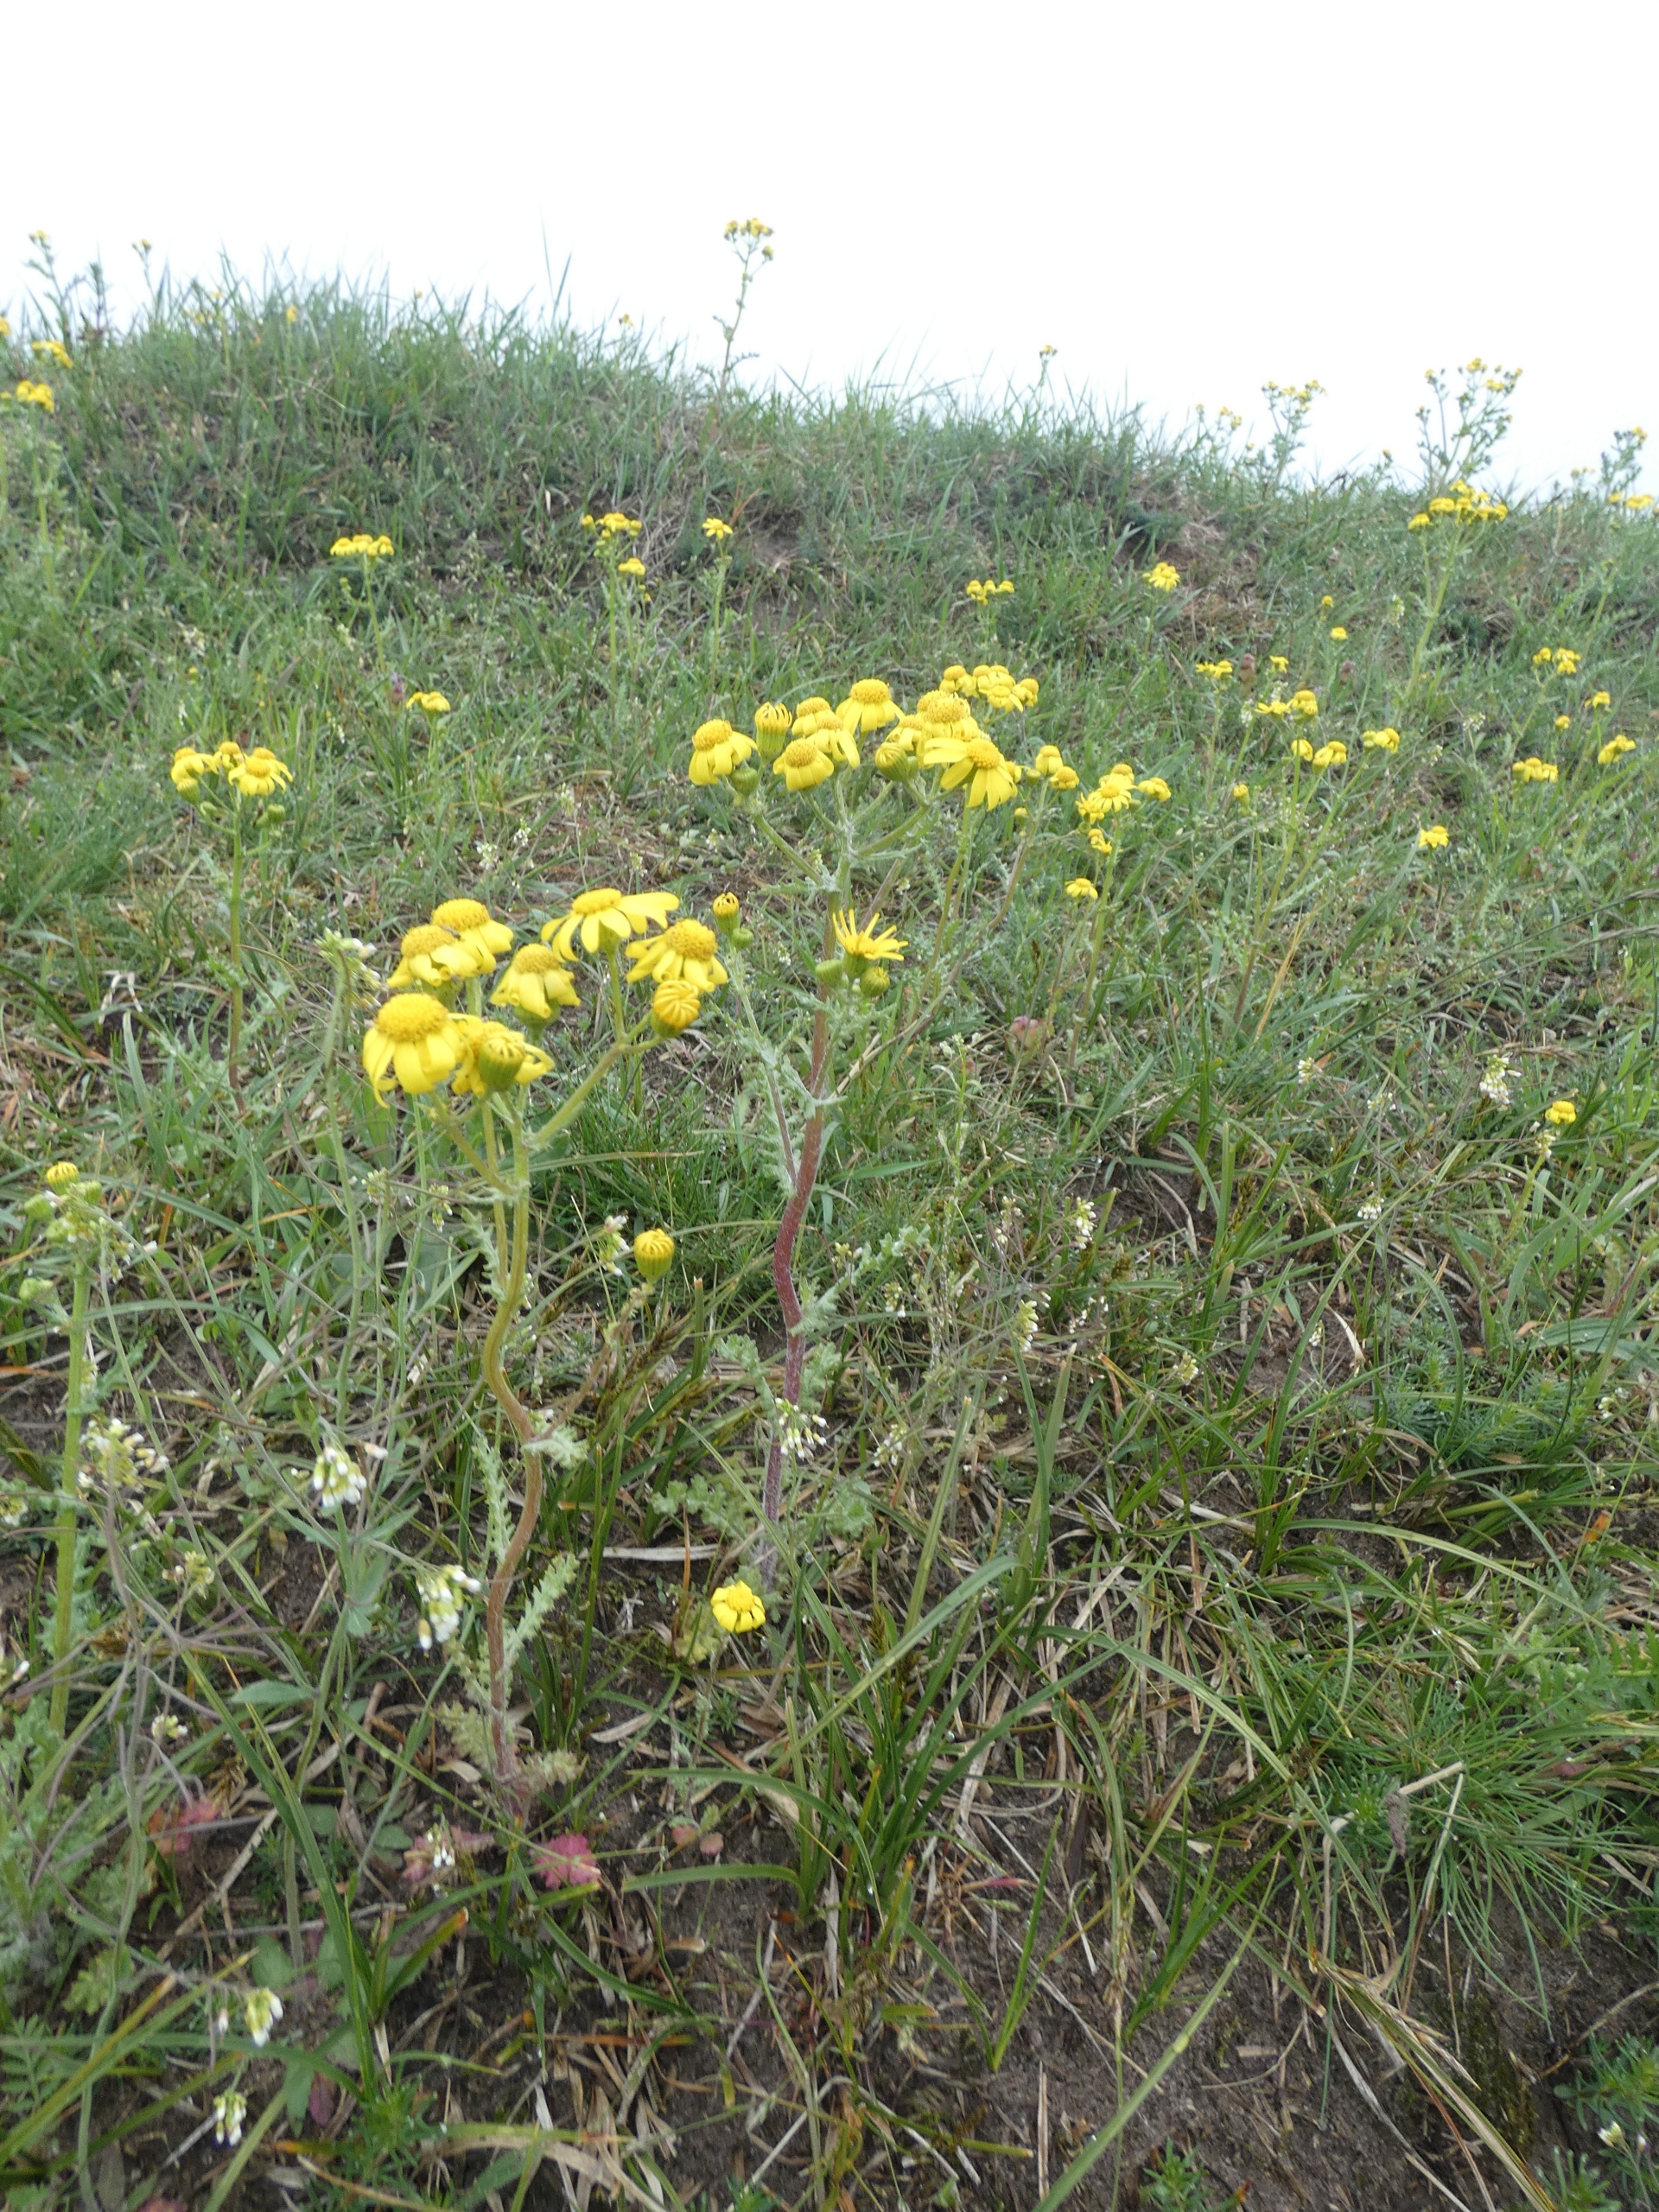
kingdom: Plantae
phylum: Tracheophyta
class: Magnoliopsida
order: Asterales
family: Asteraceae
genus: Senecio
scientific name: Senecio leucanthemifolius
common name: Vår-brandbæger
